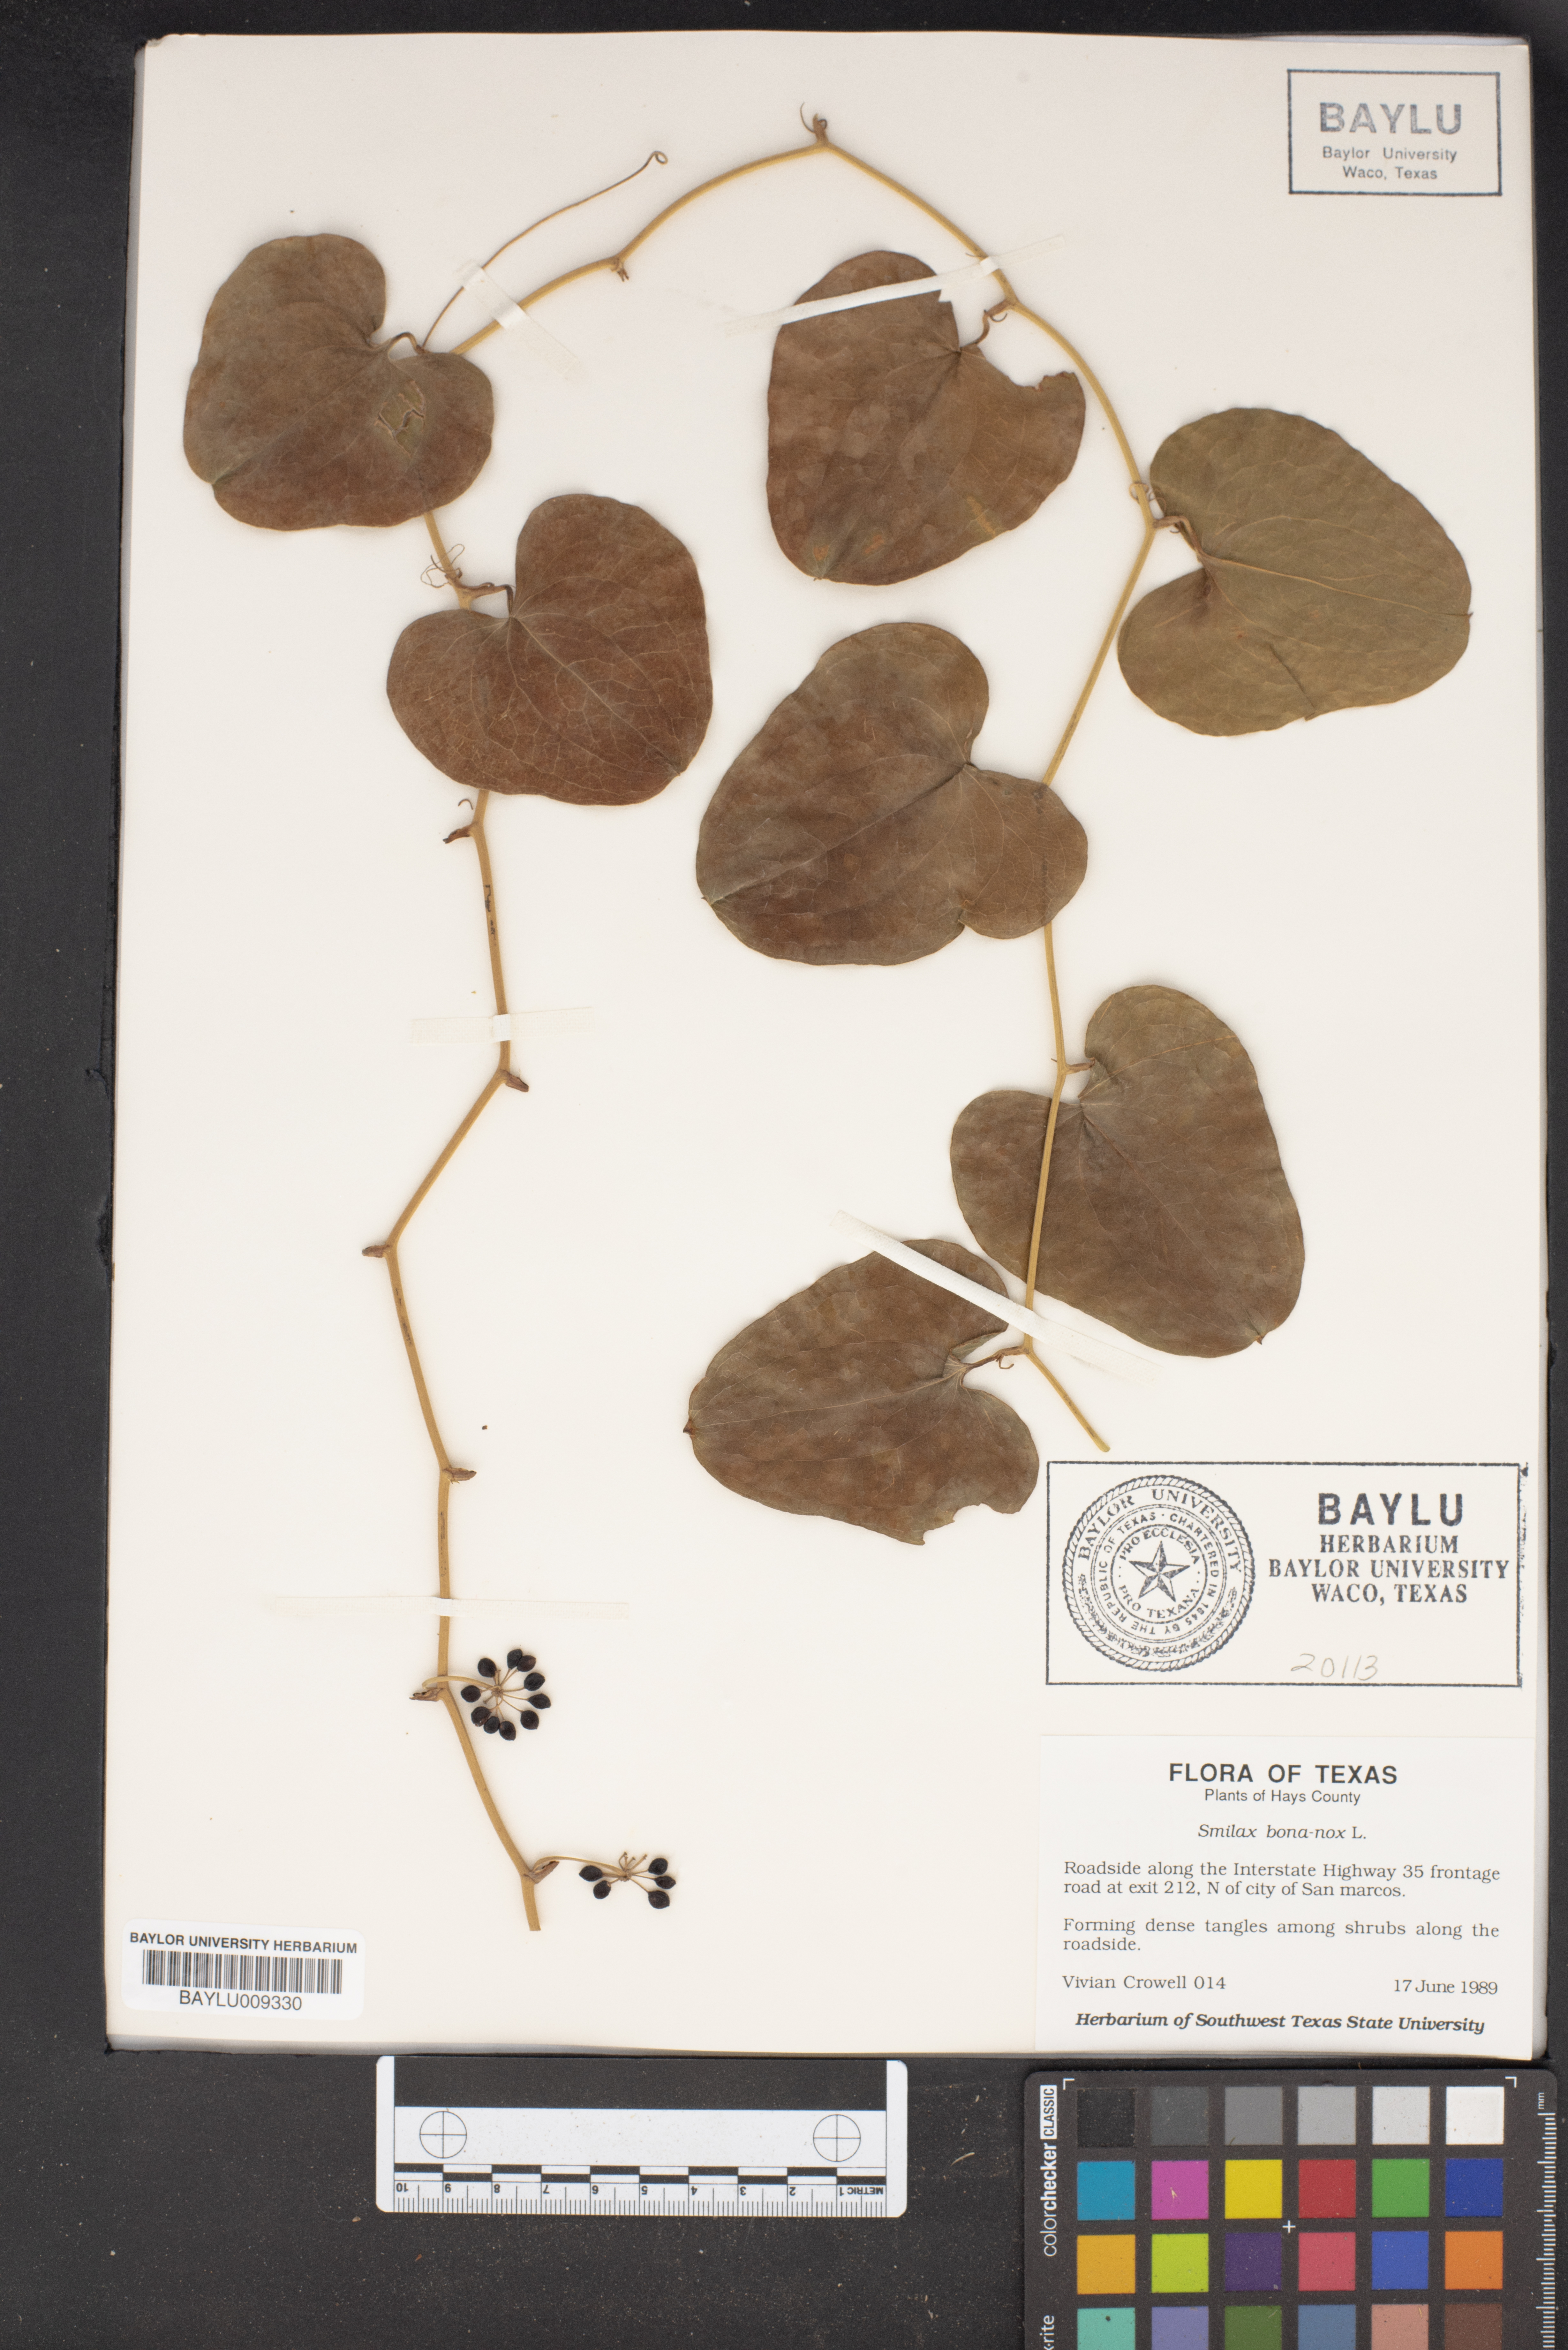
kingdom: Plantae
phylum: Tracheophyta
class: Liliopsida
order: Liliales
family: Smilacaceae
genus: Smilax
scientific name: Smilax bona-nox
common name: Catbrier
